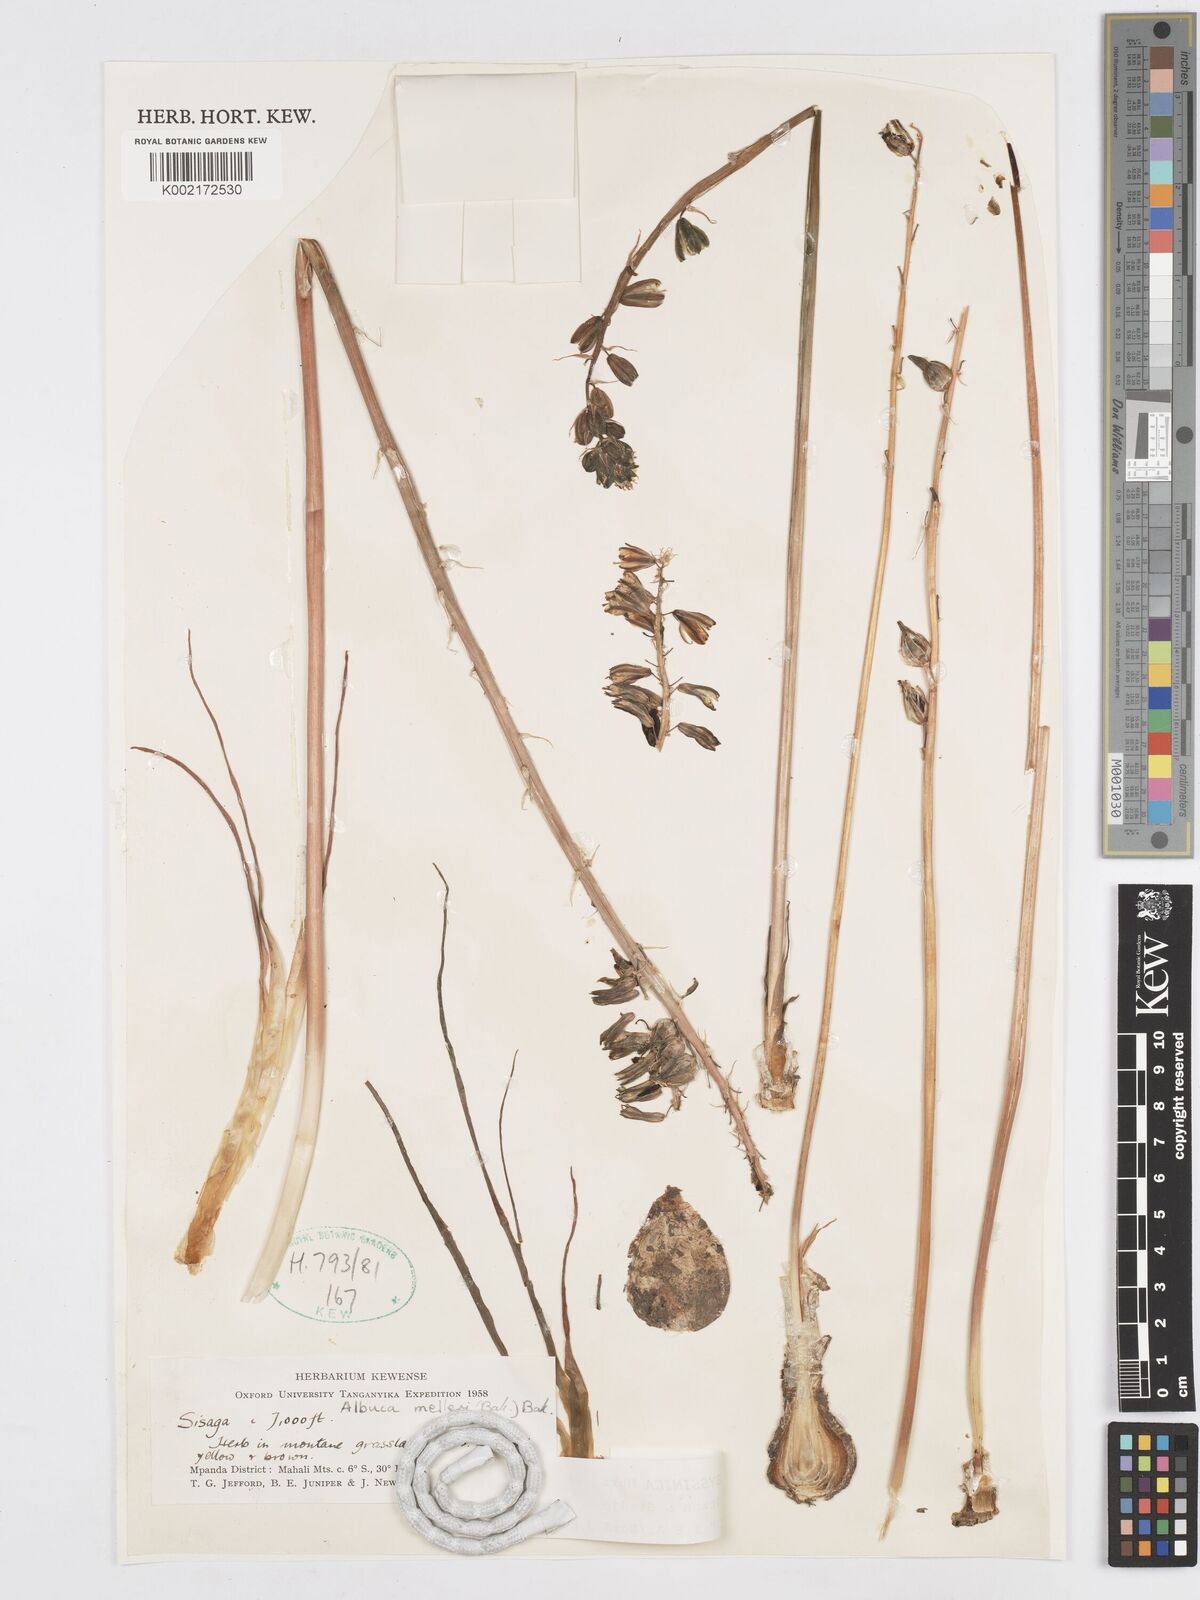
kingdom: Plantae
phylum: Tracheophyta
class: Liliopsida
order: Asparagales
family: Asparagaceae
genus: Albuca
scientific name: Albuca abyssinica
